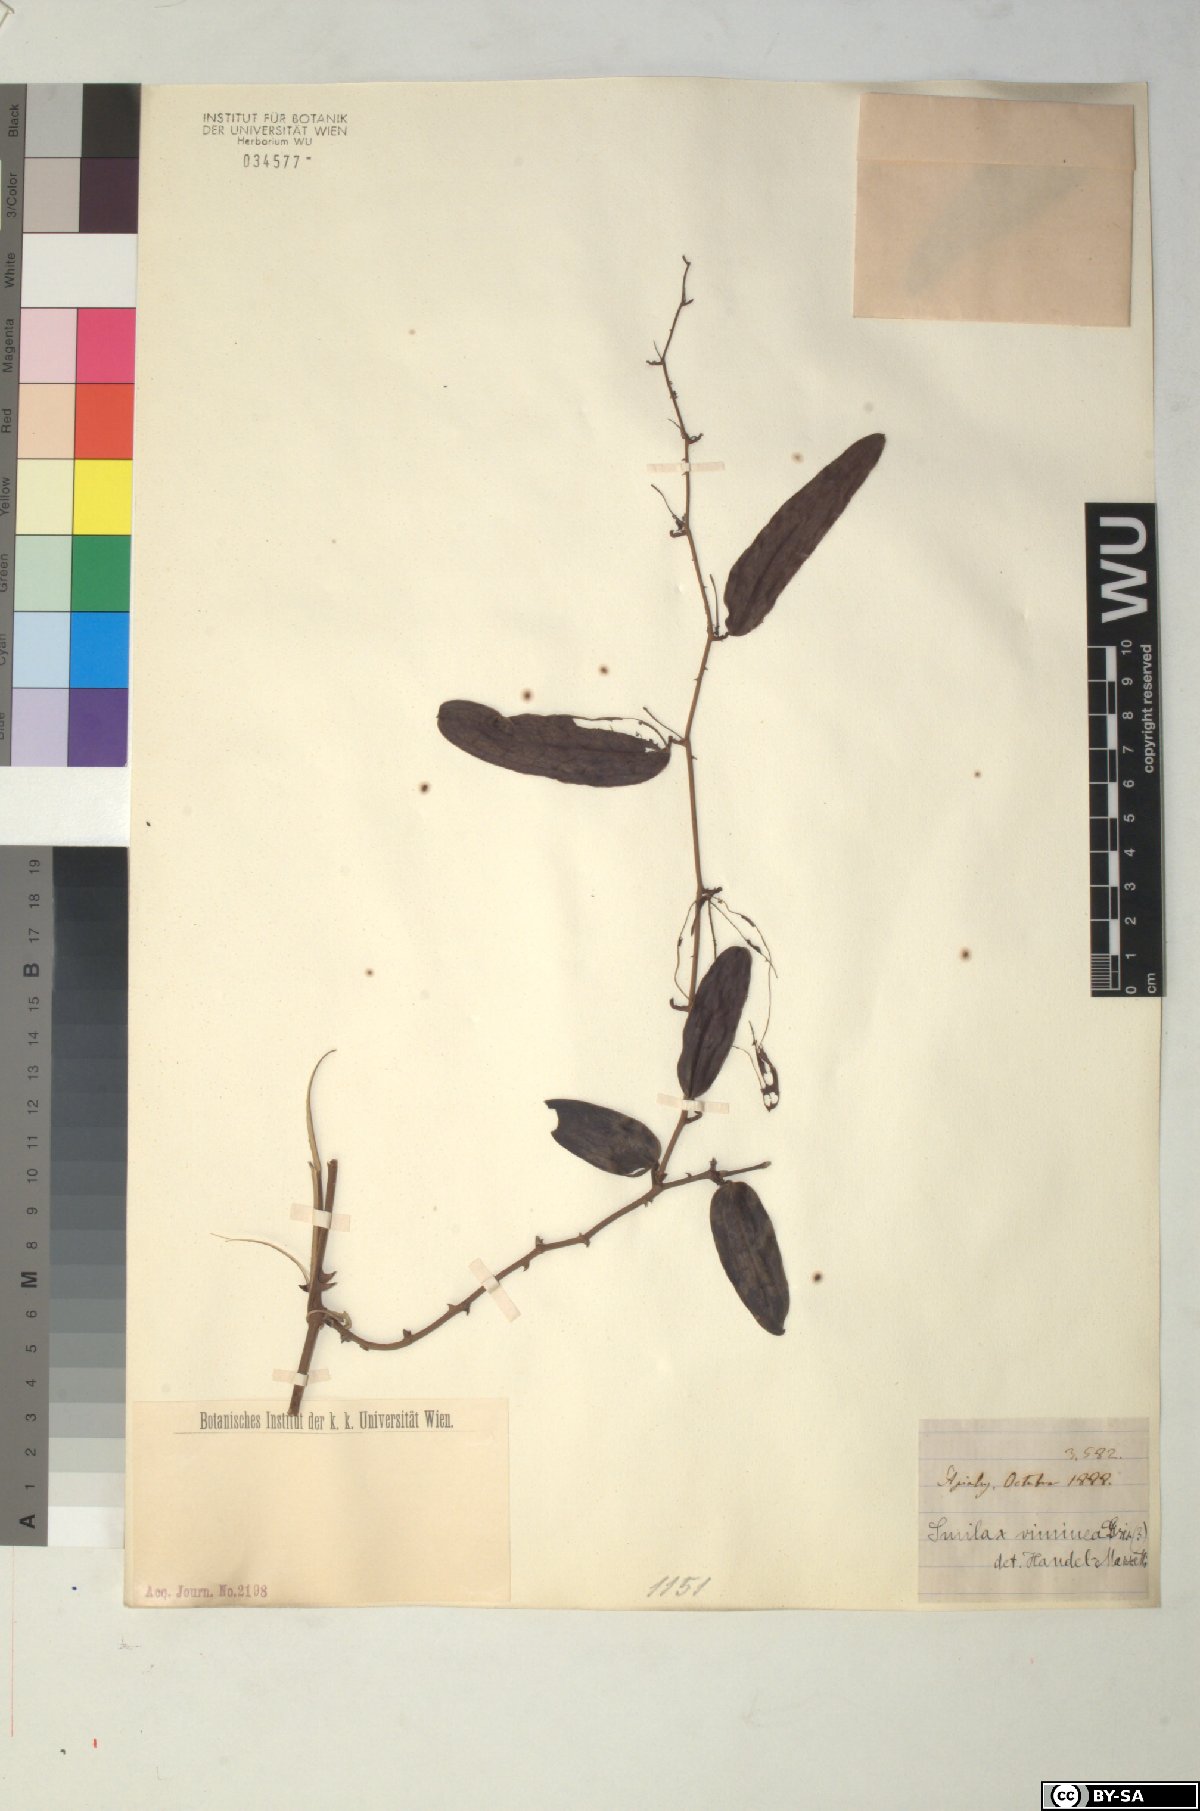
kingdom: Plantae
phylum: Tracheophyta
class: Liliopsida
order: Liliales
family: Smilacaceae
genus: Smilax
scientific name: Smilax campestris
